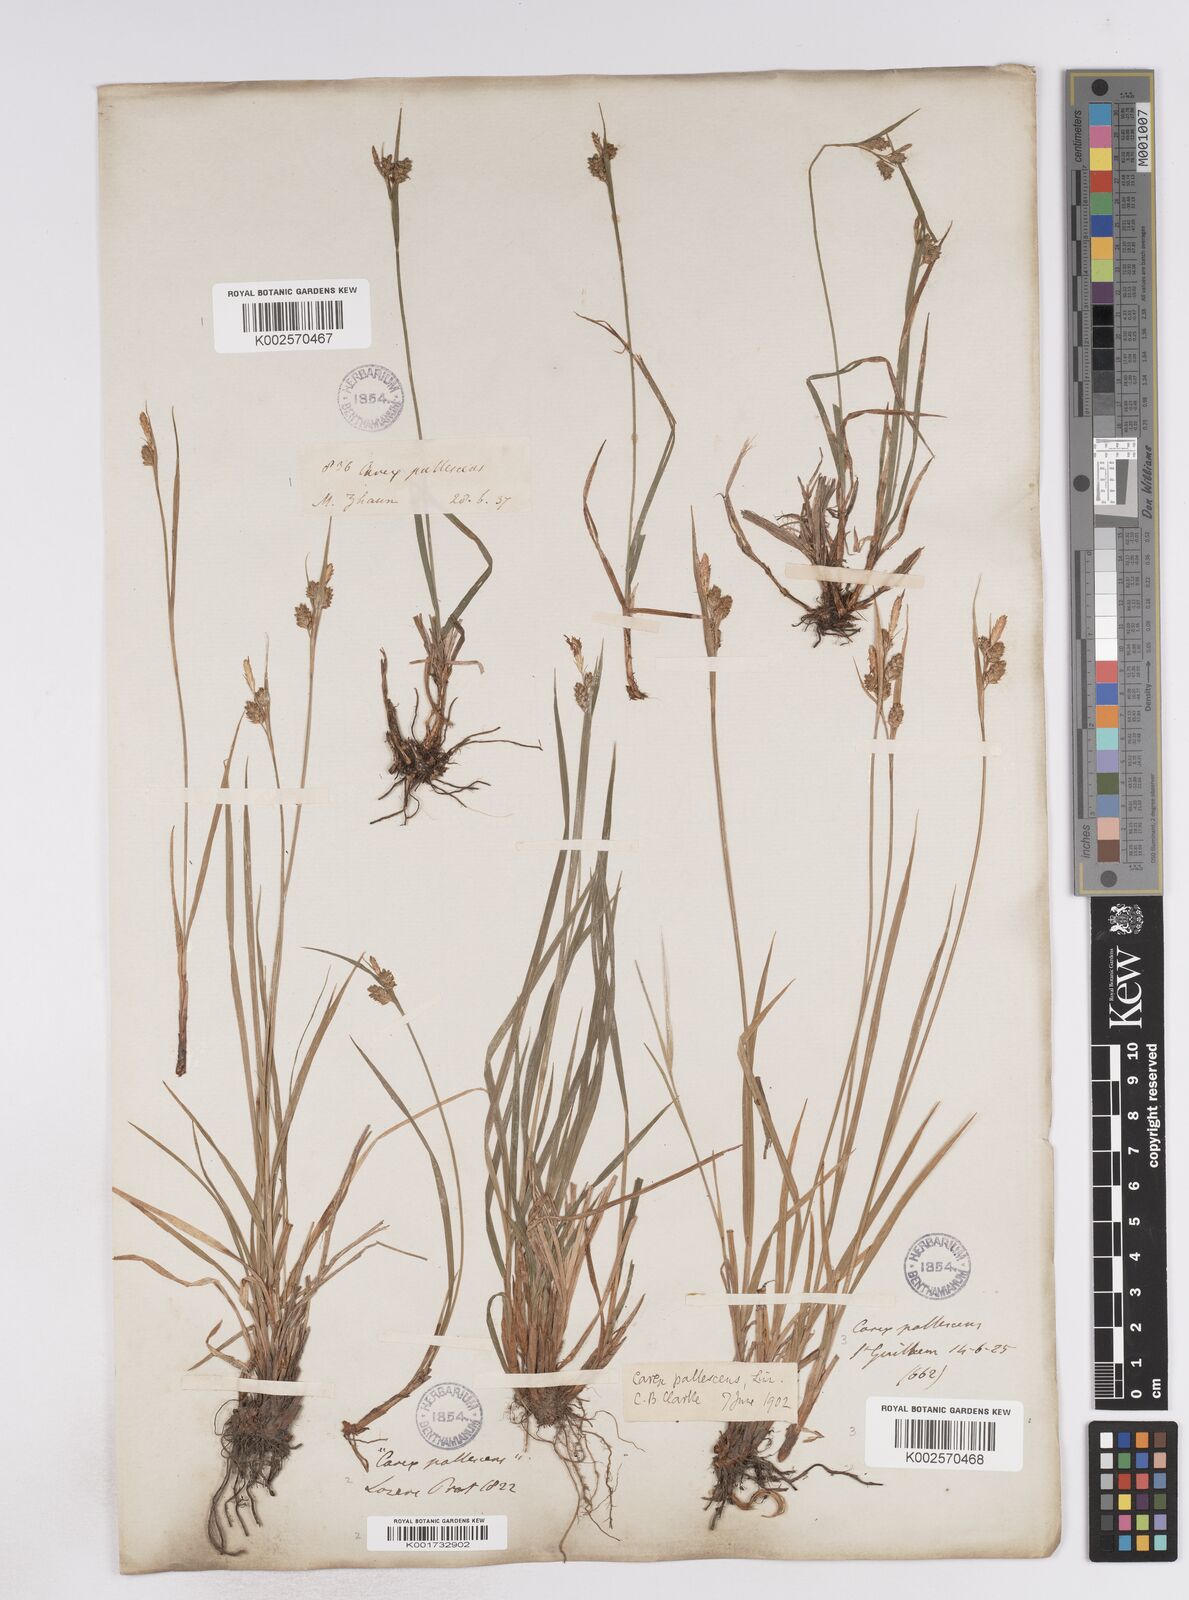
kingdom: Plantae
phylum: Tracheophyta
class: Liliopsida
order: Poales
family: Cyperaceae
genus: Carex
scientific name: Carex pallescens
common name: Pale sedge
